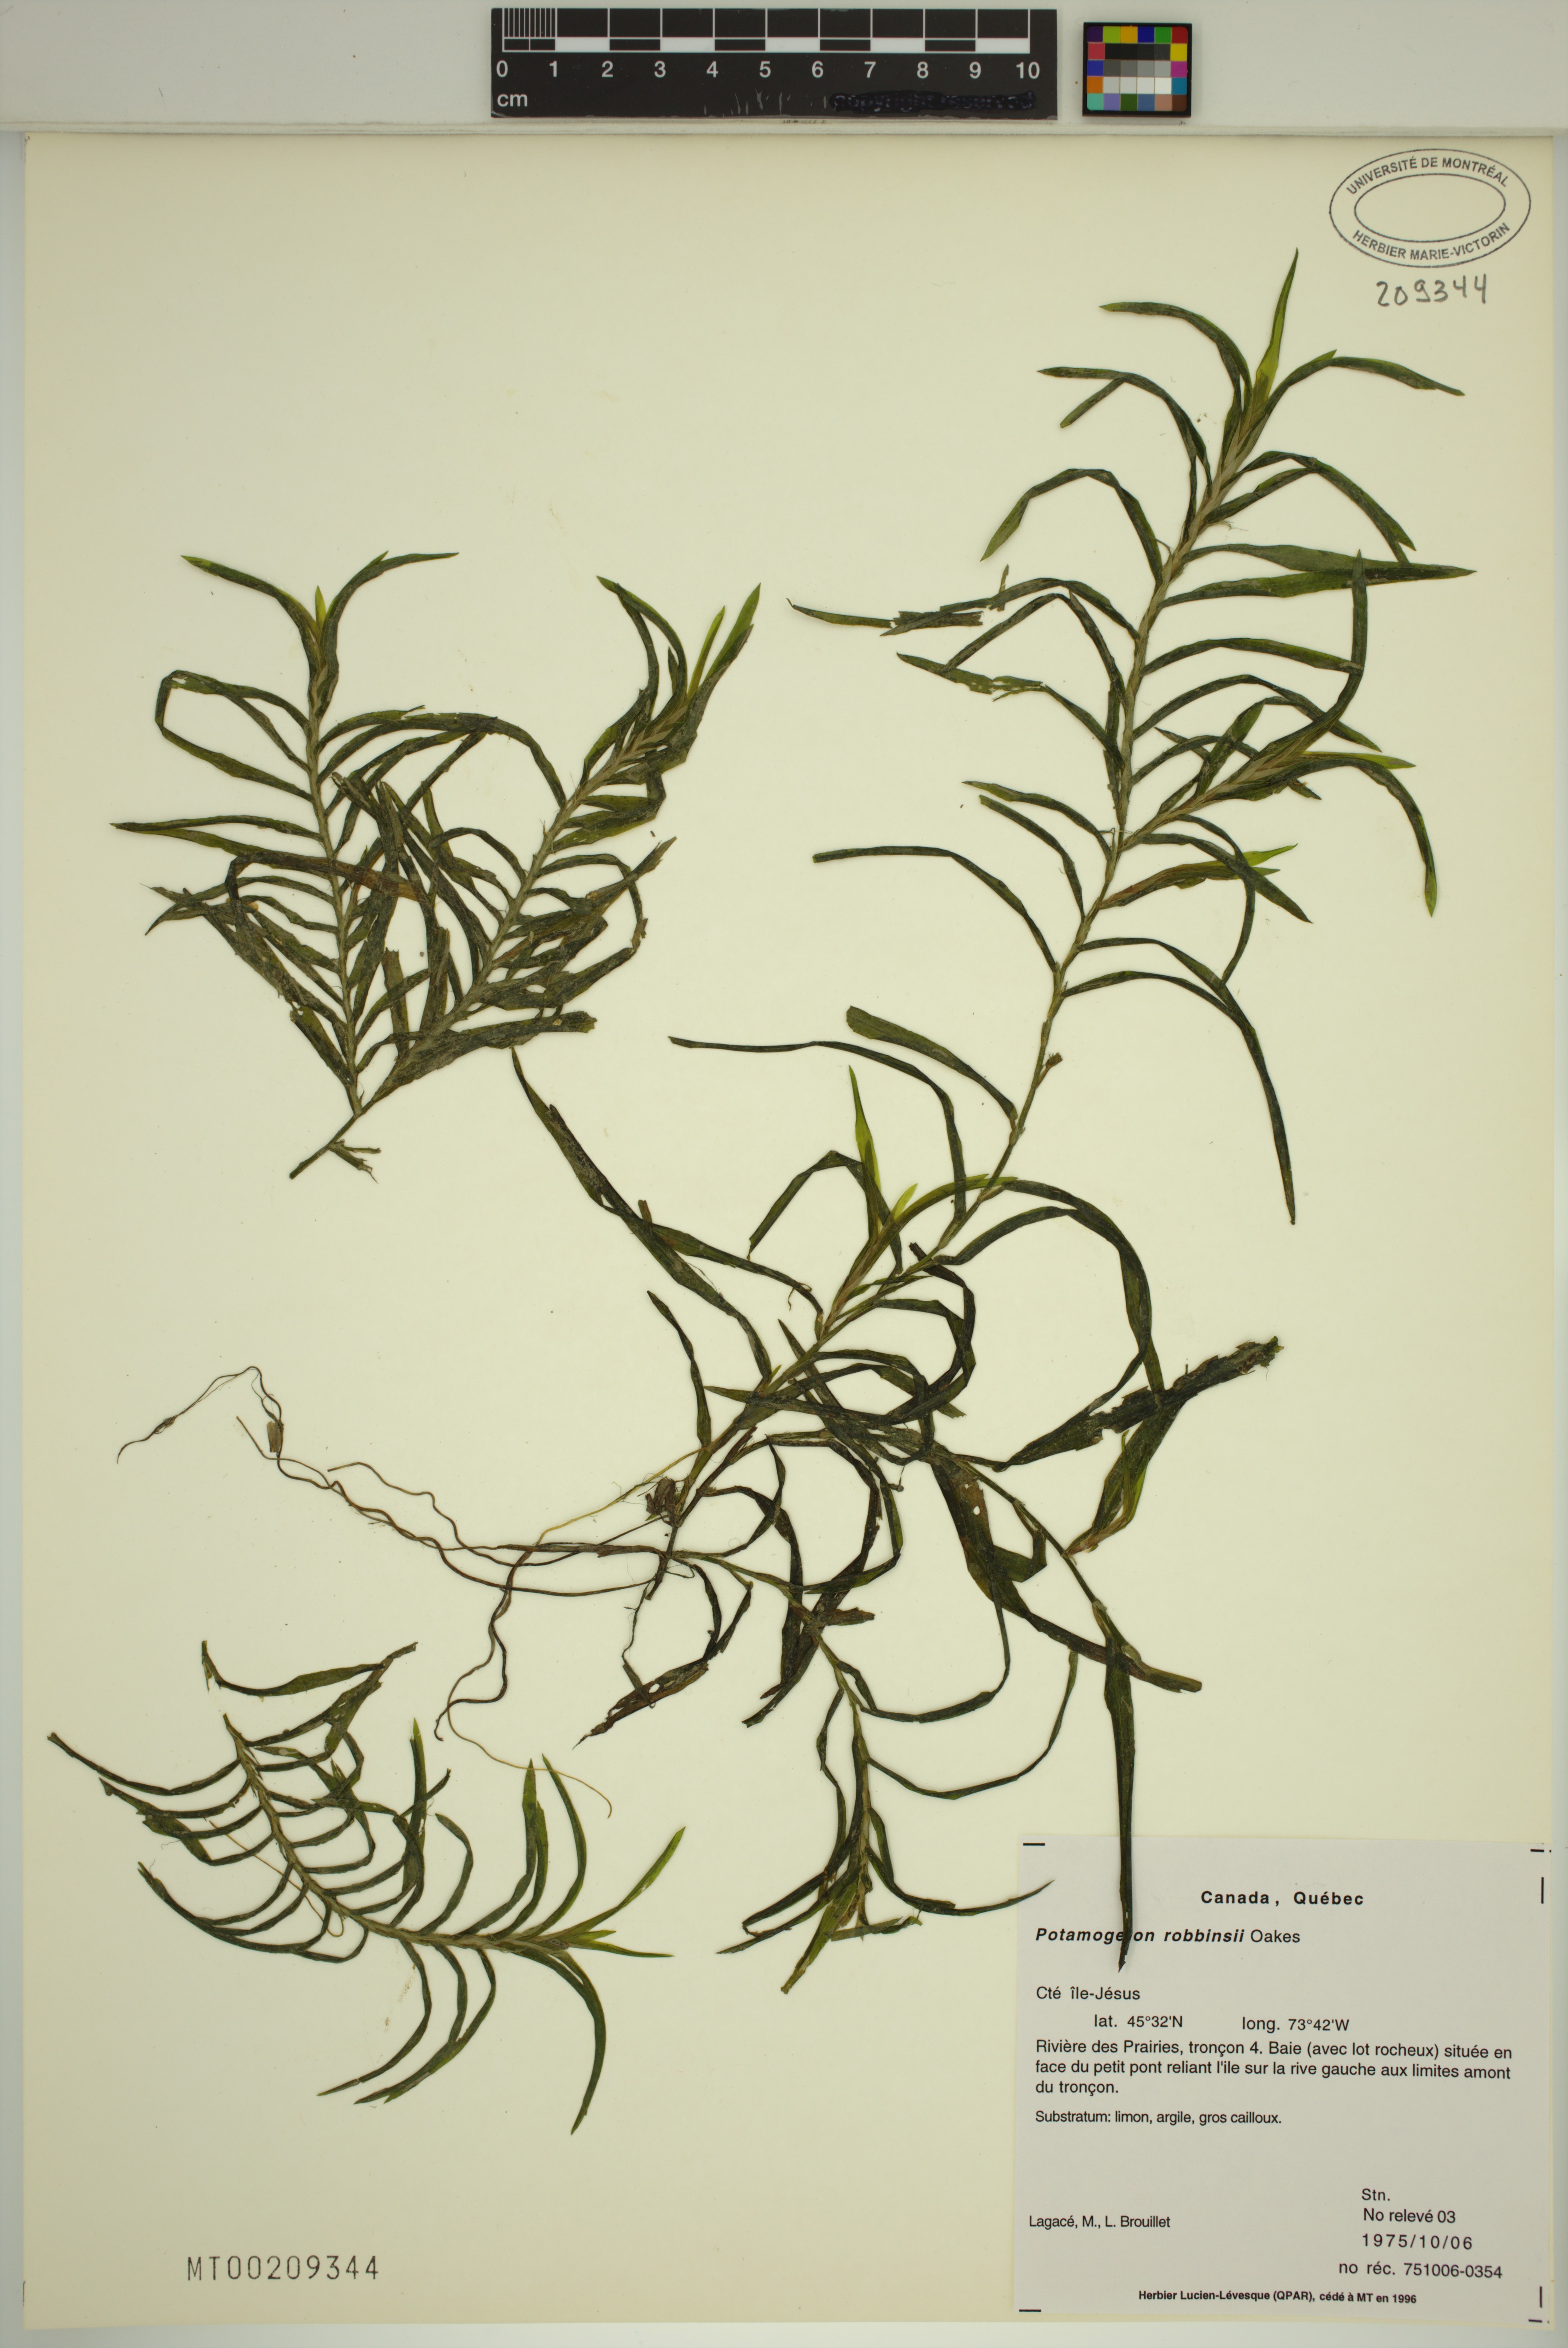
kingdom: Plantae
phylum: Tracheophyta
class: Liliopsida
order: Alismatales
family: Potamogetonaceae
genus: Potamogeton
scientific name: Potamogeton robbinsii
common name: Fern pondweed
